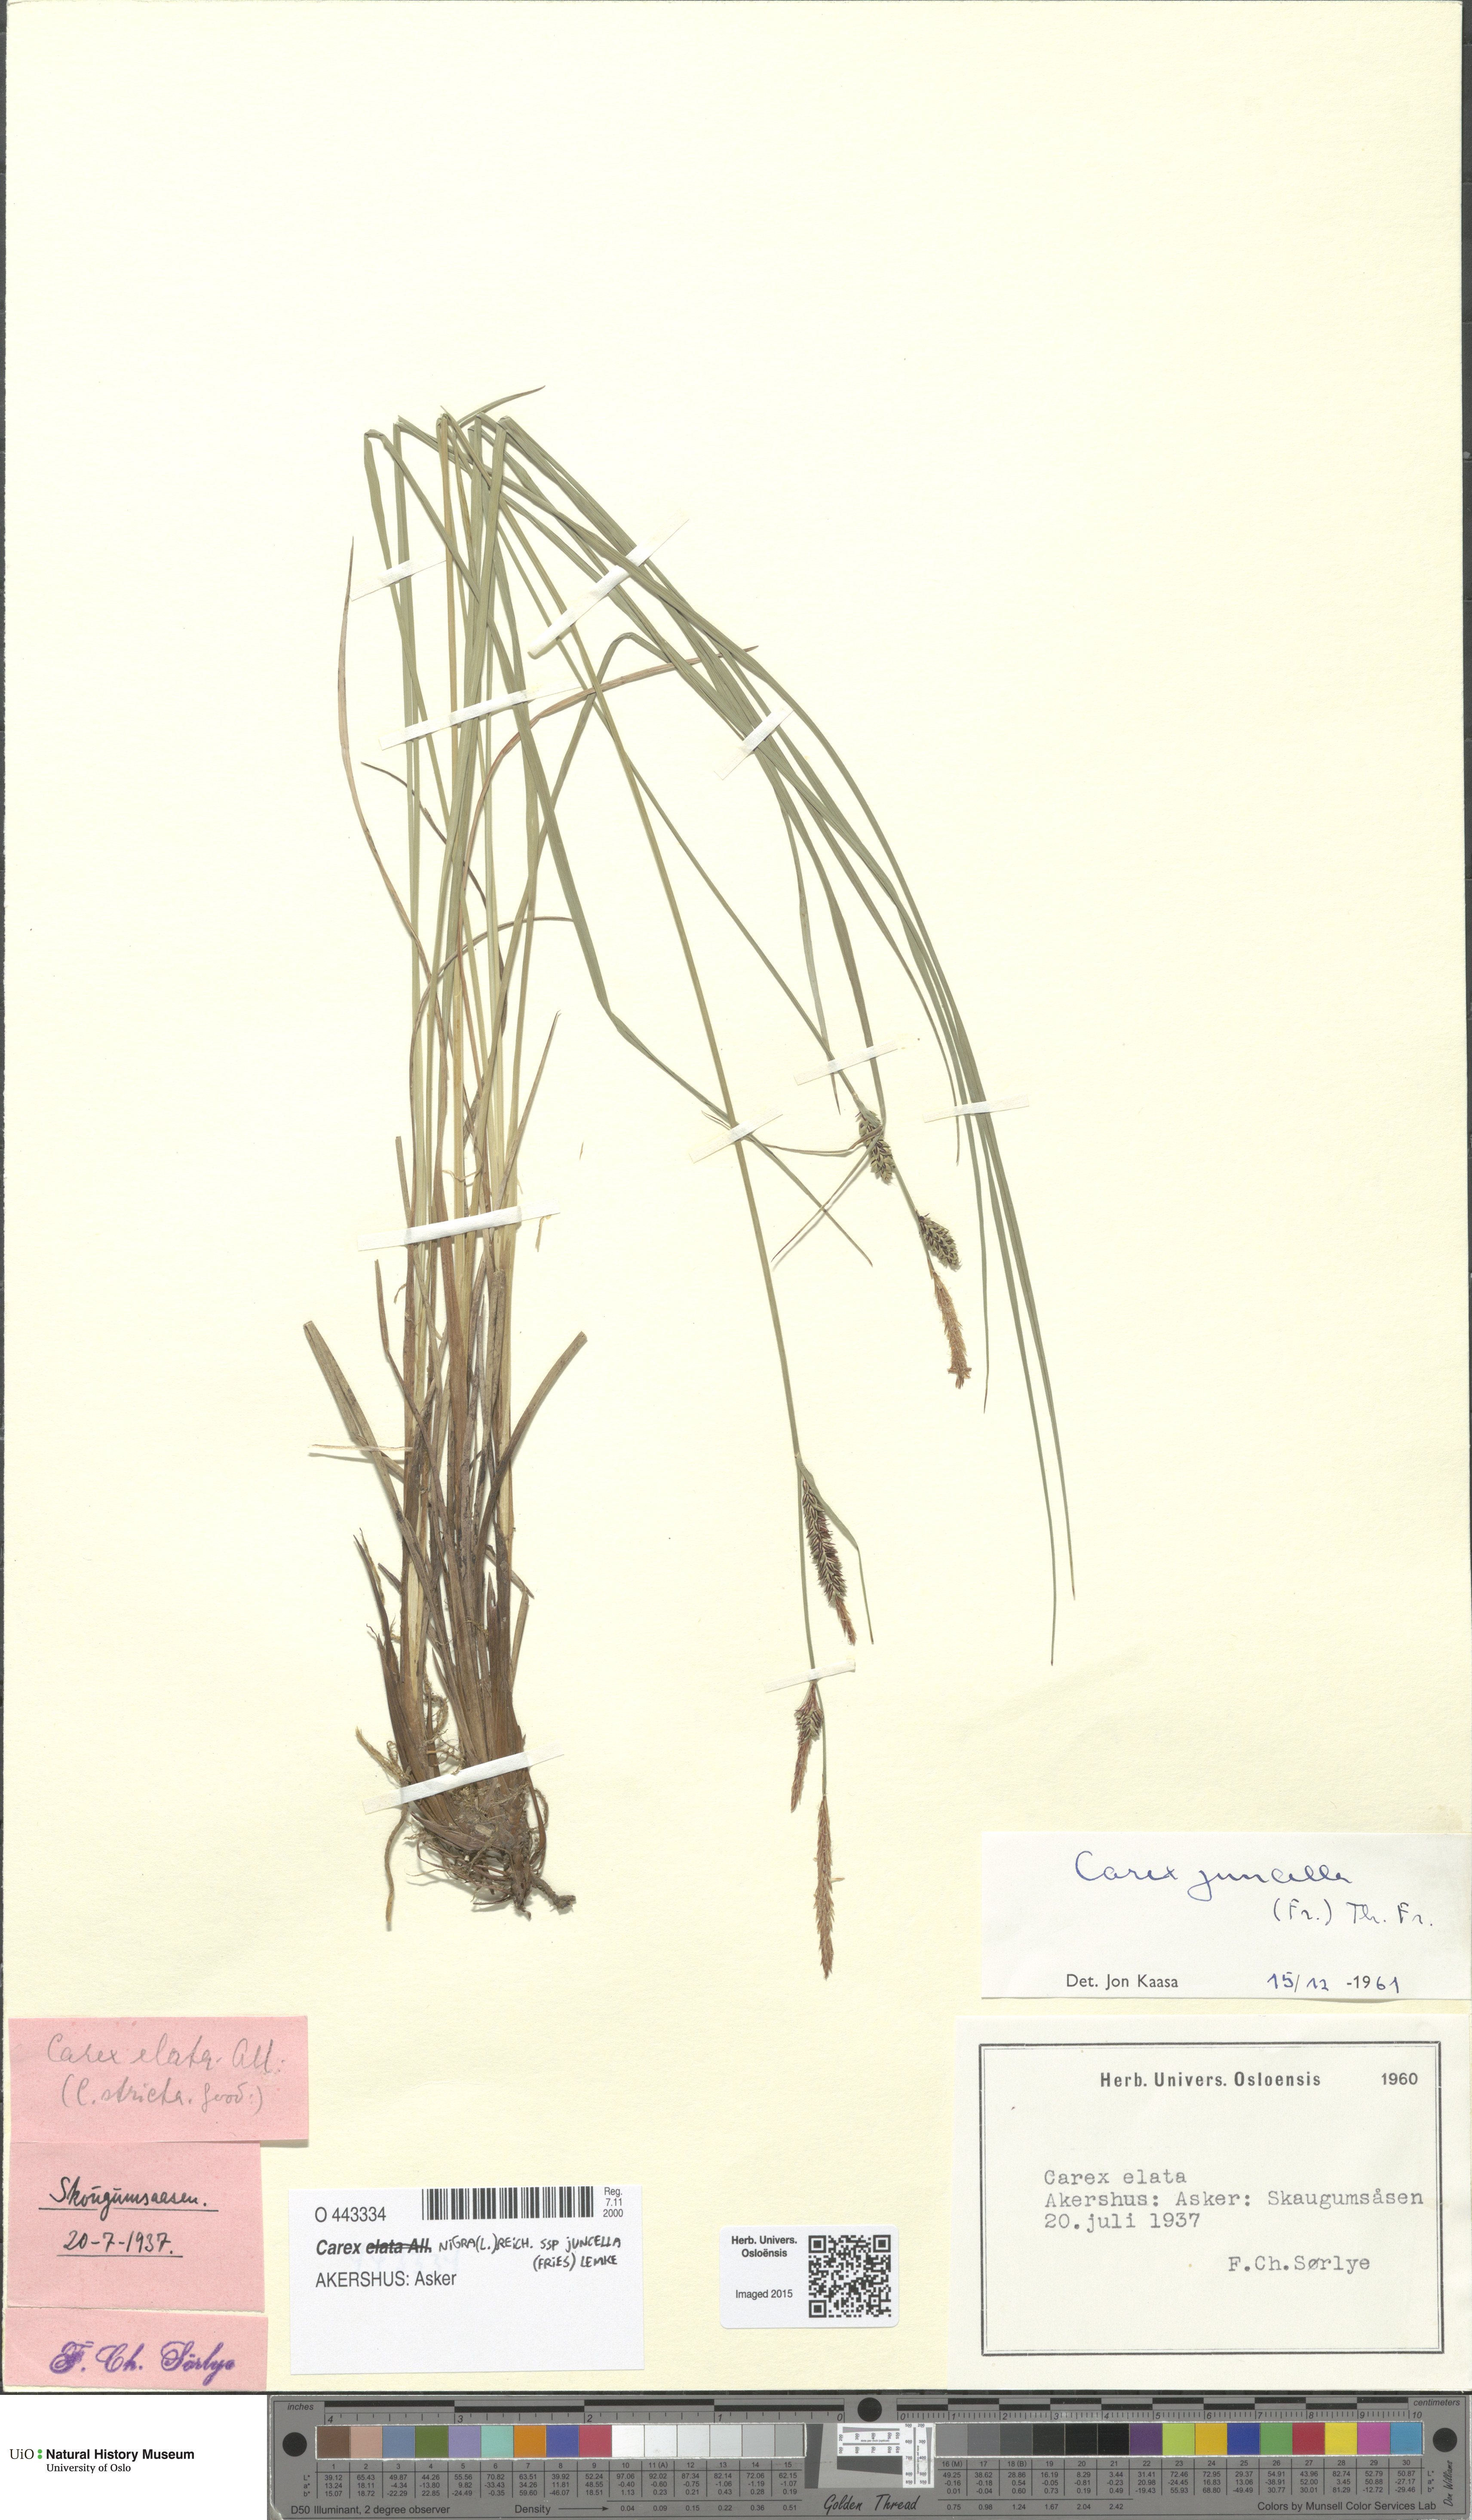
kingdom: Plantae
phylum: Tracheophyta
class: Liliopsida
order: Poales
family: Cyperaceae
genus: Carex
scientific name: Carex nigra
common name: Common sedge
